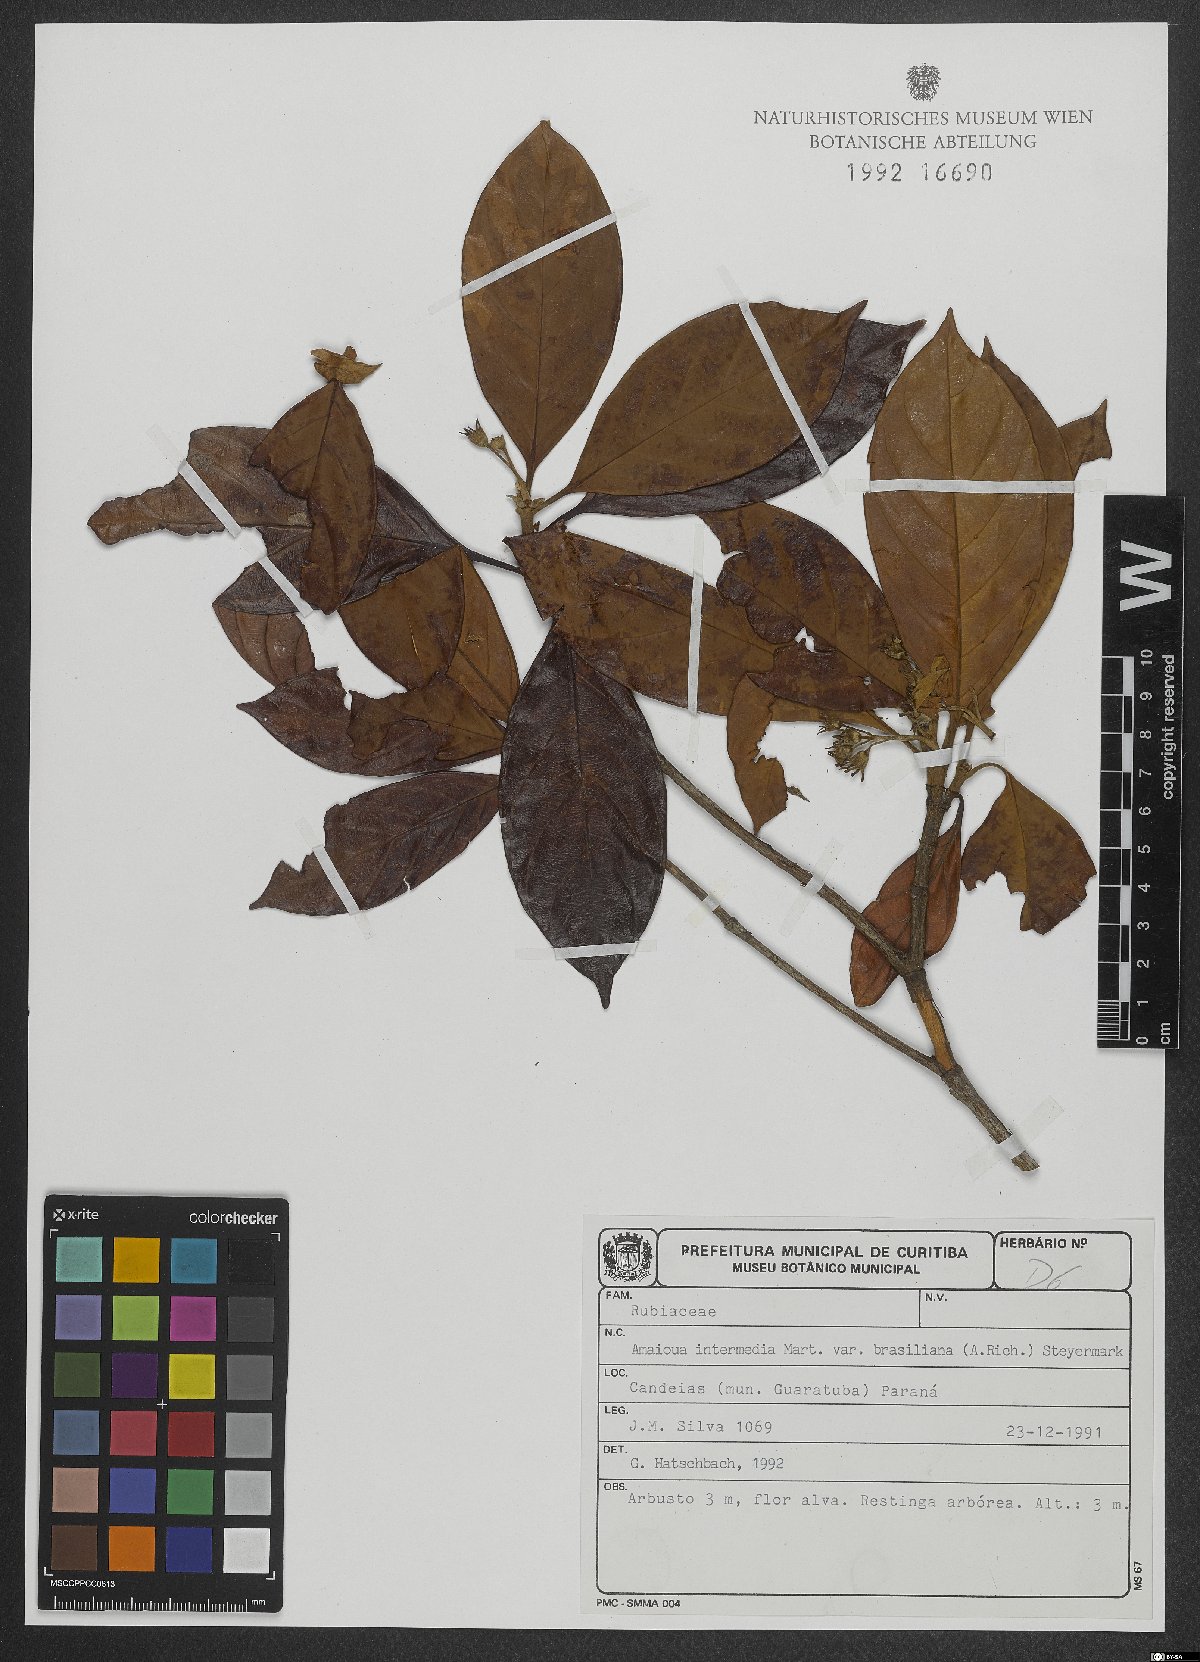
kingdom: Plantae
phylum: Tracheophyta
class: Magnoliopsida
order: Gentianales
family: Rubiaceae
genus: Amaioua
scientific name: Amaioua intermedia
